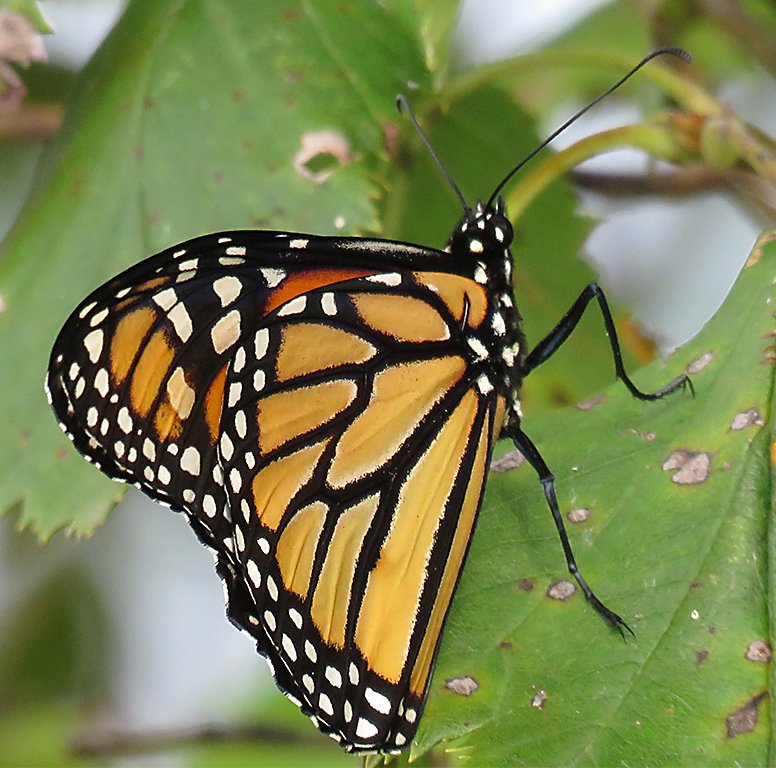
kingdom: Animalia
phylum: Arthropoda
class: Insecta
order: Lepidoptera
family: Nymphalidae
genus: Danaus
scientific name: Danaus plexippus
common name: Monarch
